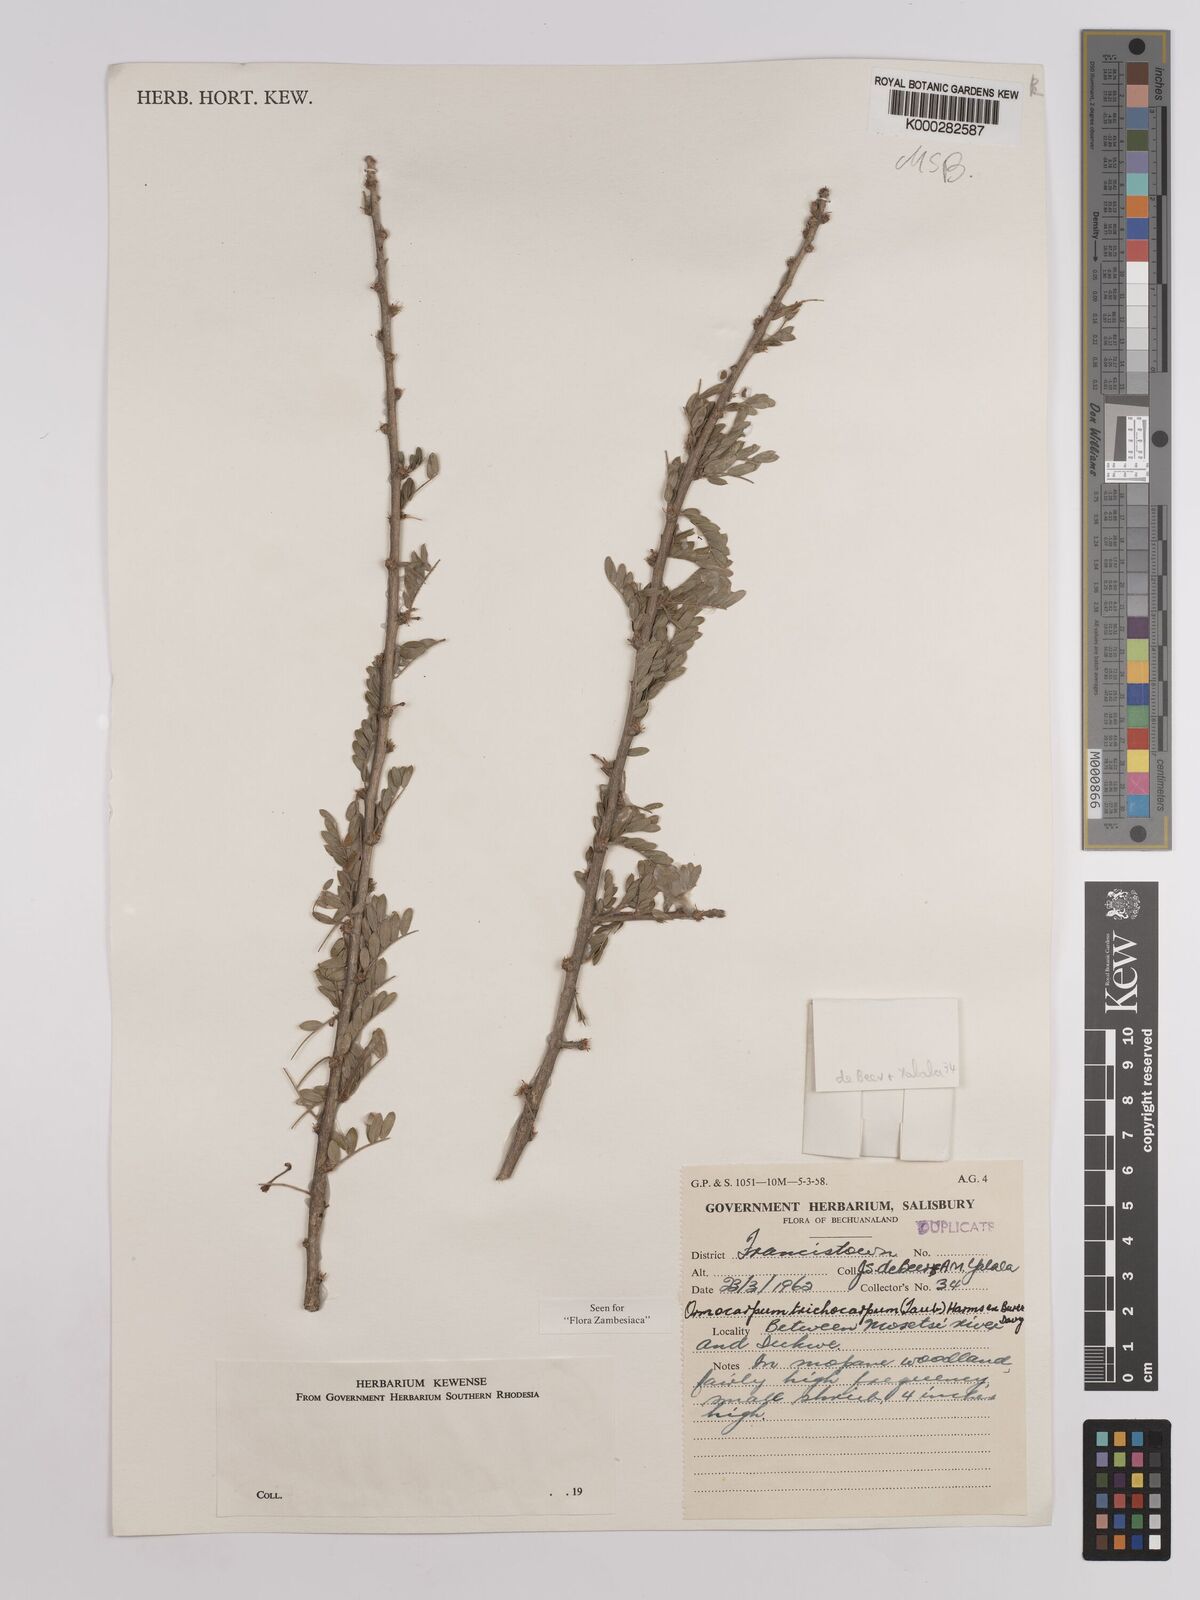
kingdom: Plantae
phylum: Tracheophyta
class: Magnoliopsida
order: Fabales
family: Fabaceae
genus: Ormocarpum
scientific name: Ormocarpum trichocarpum
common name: Caterpillar bush
